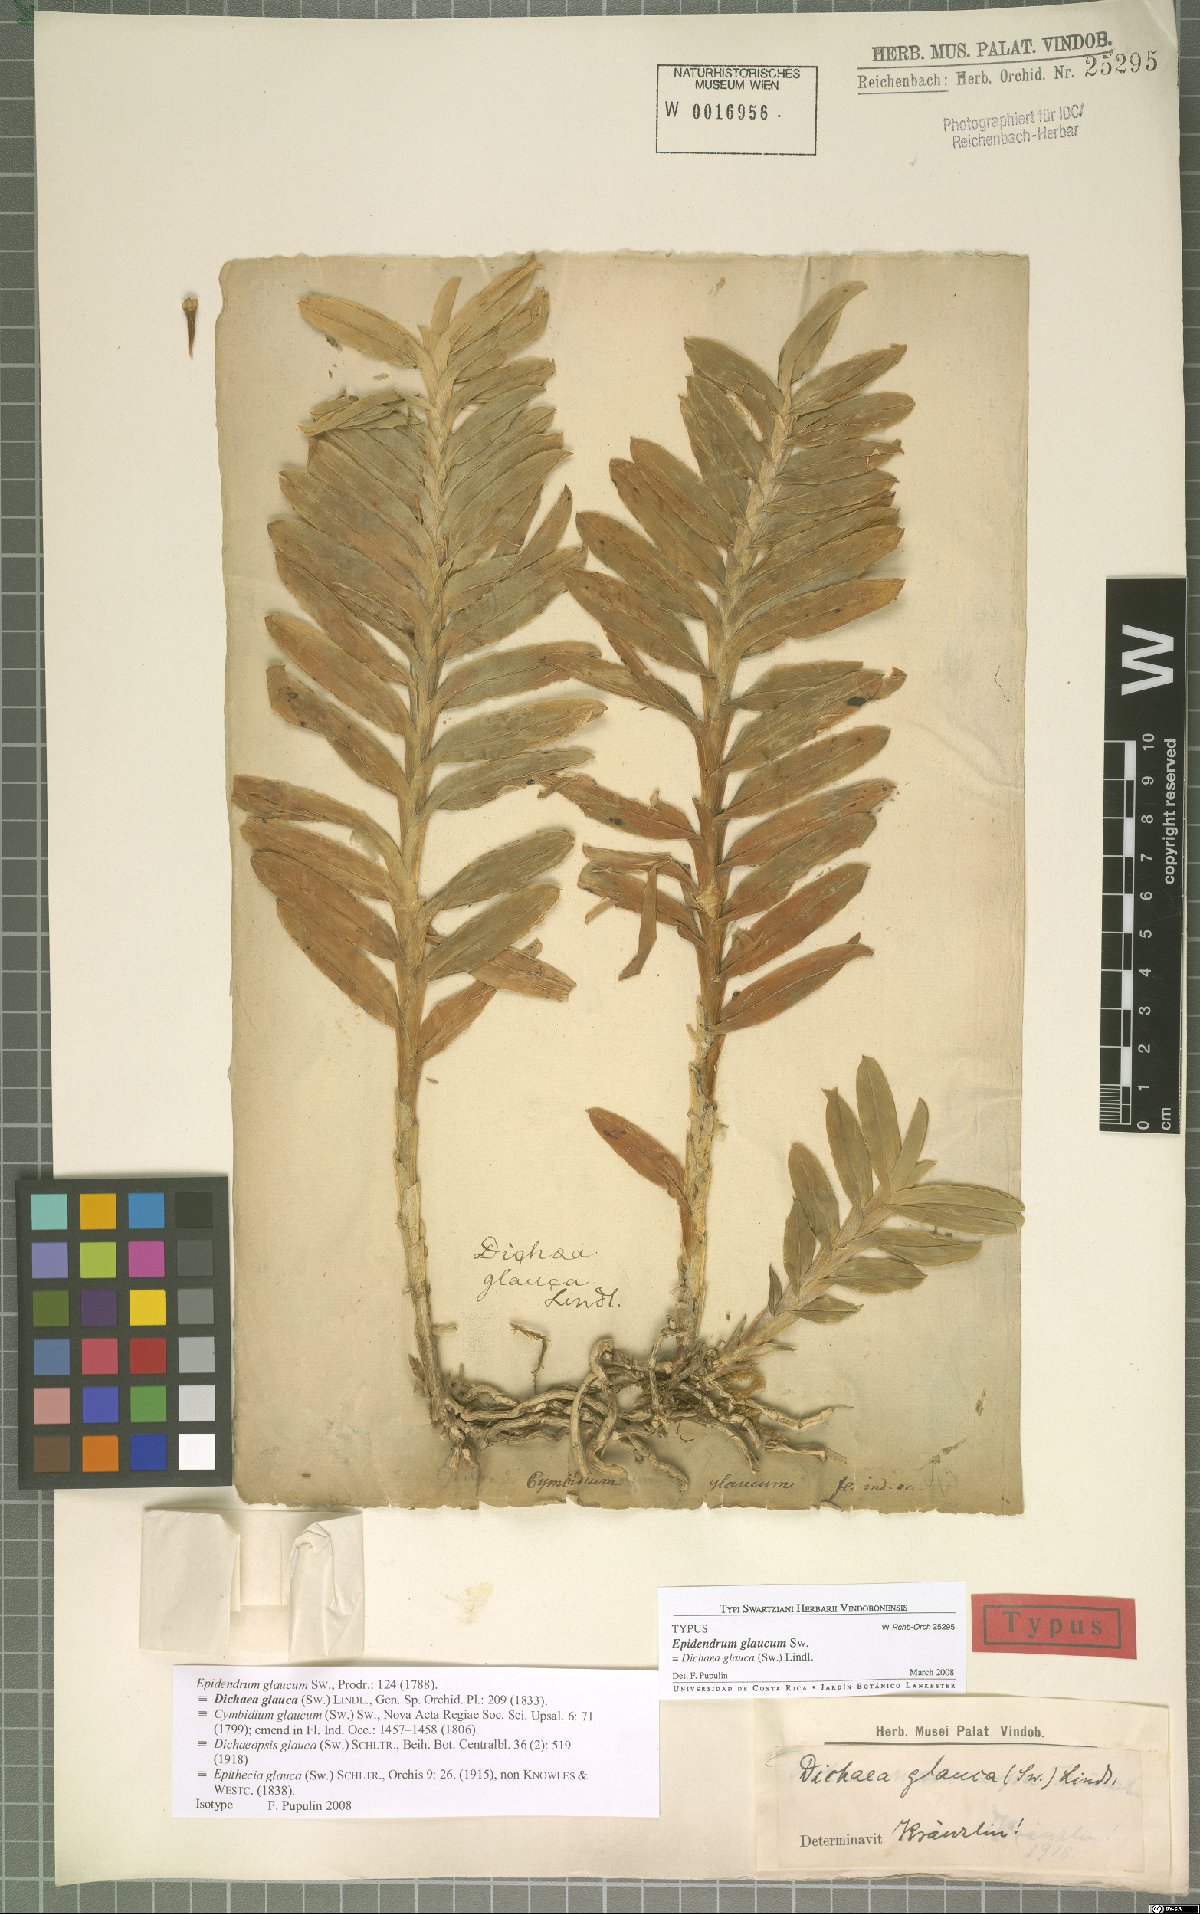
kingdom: Plantae
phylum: Tracheophyta
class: Liliopsida
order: Asparagales
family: Orchidaceae
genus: Dichaea
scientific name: Dichaea glauca
